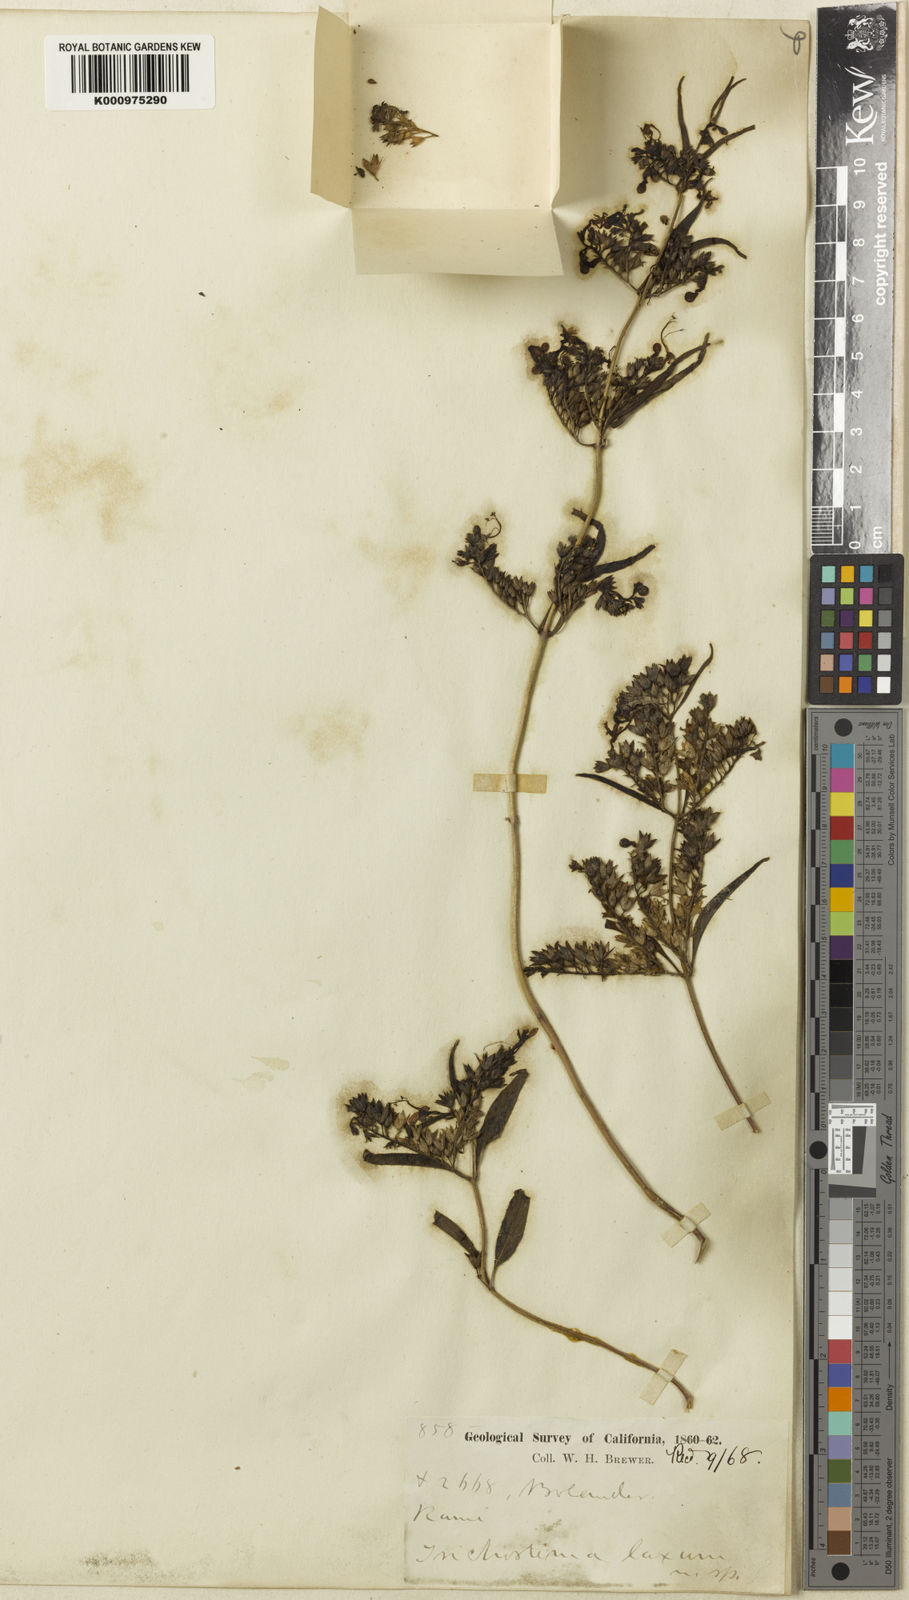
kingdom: Plantae
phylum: Tracheophyta
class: Magnoliopsida
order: Lamiales
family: Lamiaceae
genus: Trichostema
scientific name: Trichostema laxum
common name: Turpentine weed
